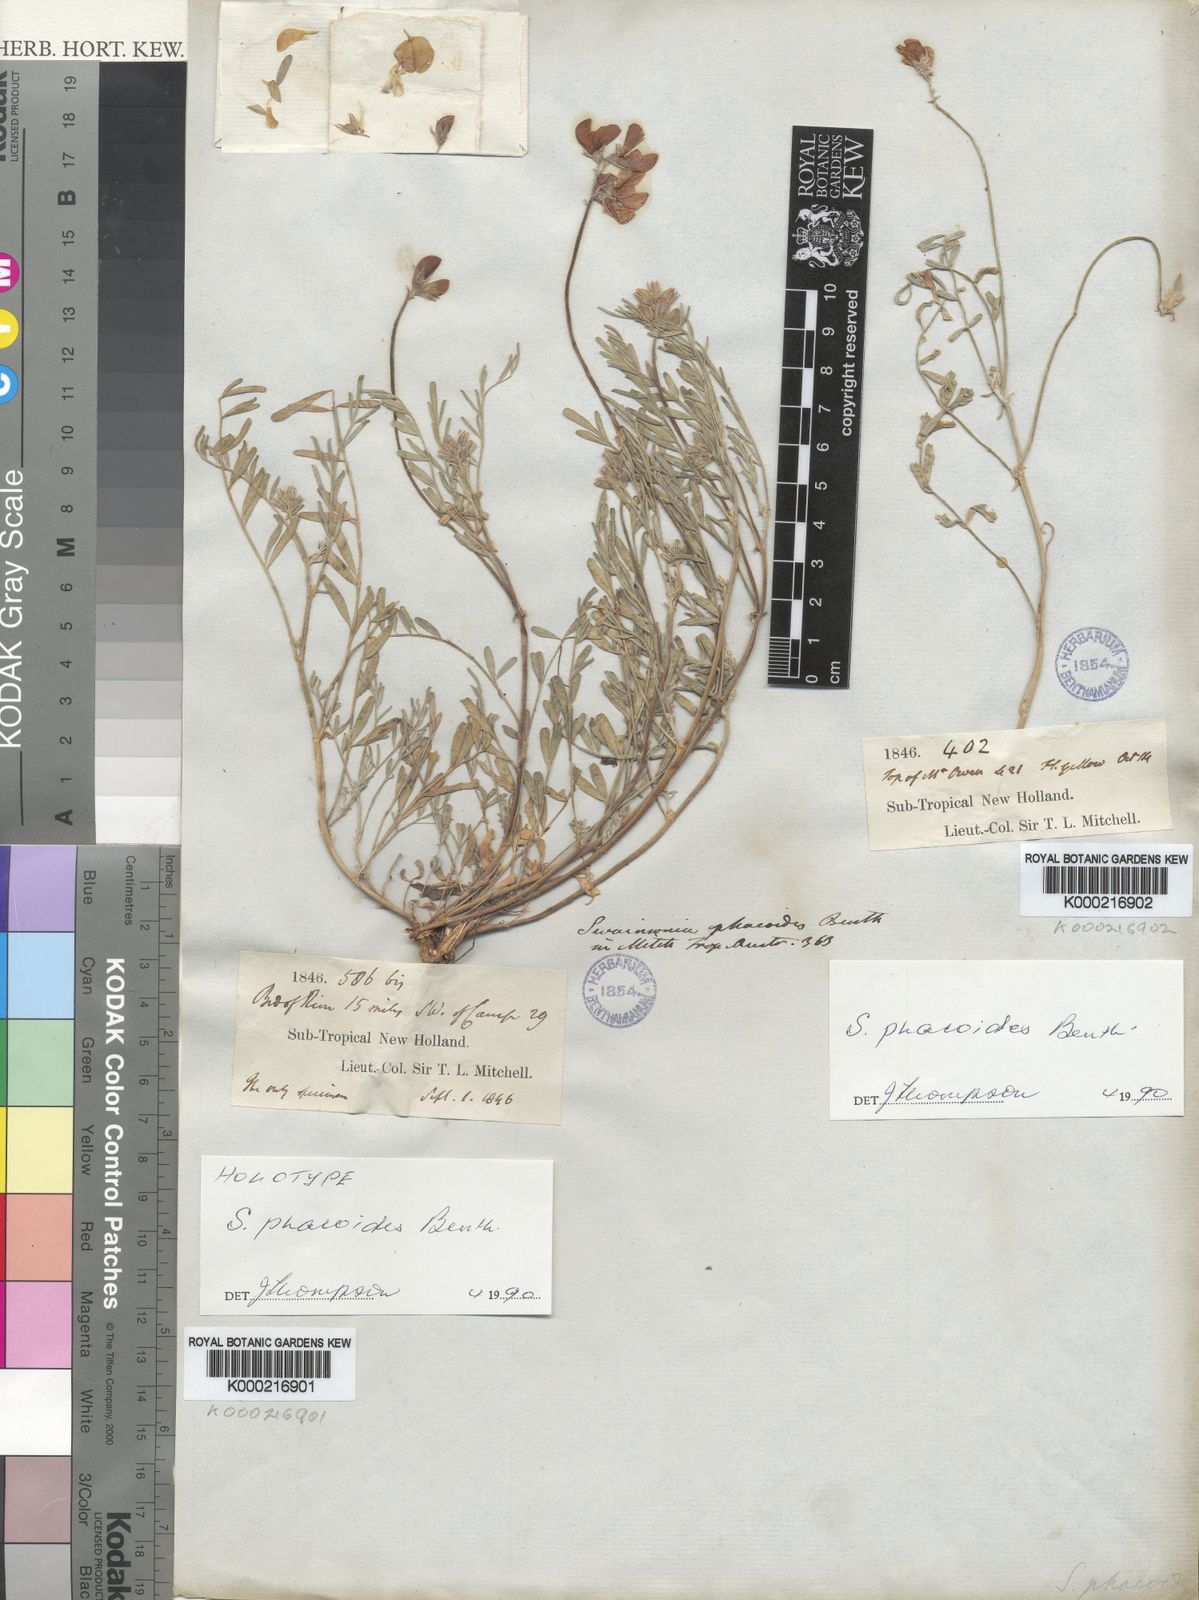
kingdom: Plantae
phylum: Tracheophyta
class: Magnoliopsida
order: Fabales
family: Fabaceae
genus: Swainsona
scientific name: Swainsona phacoides
